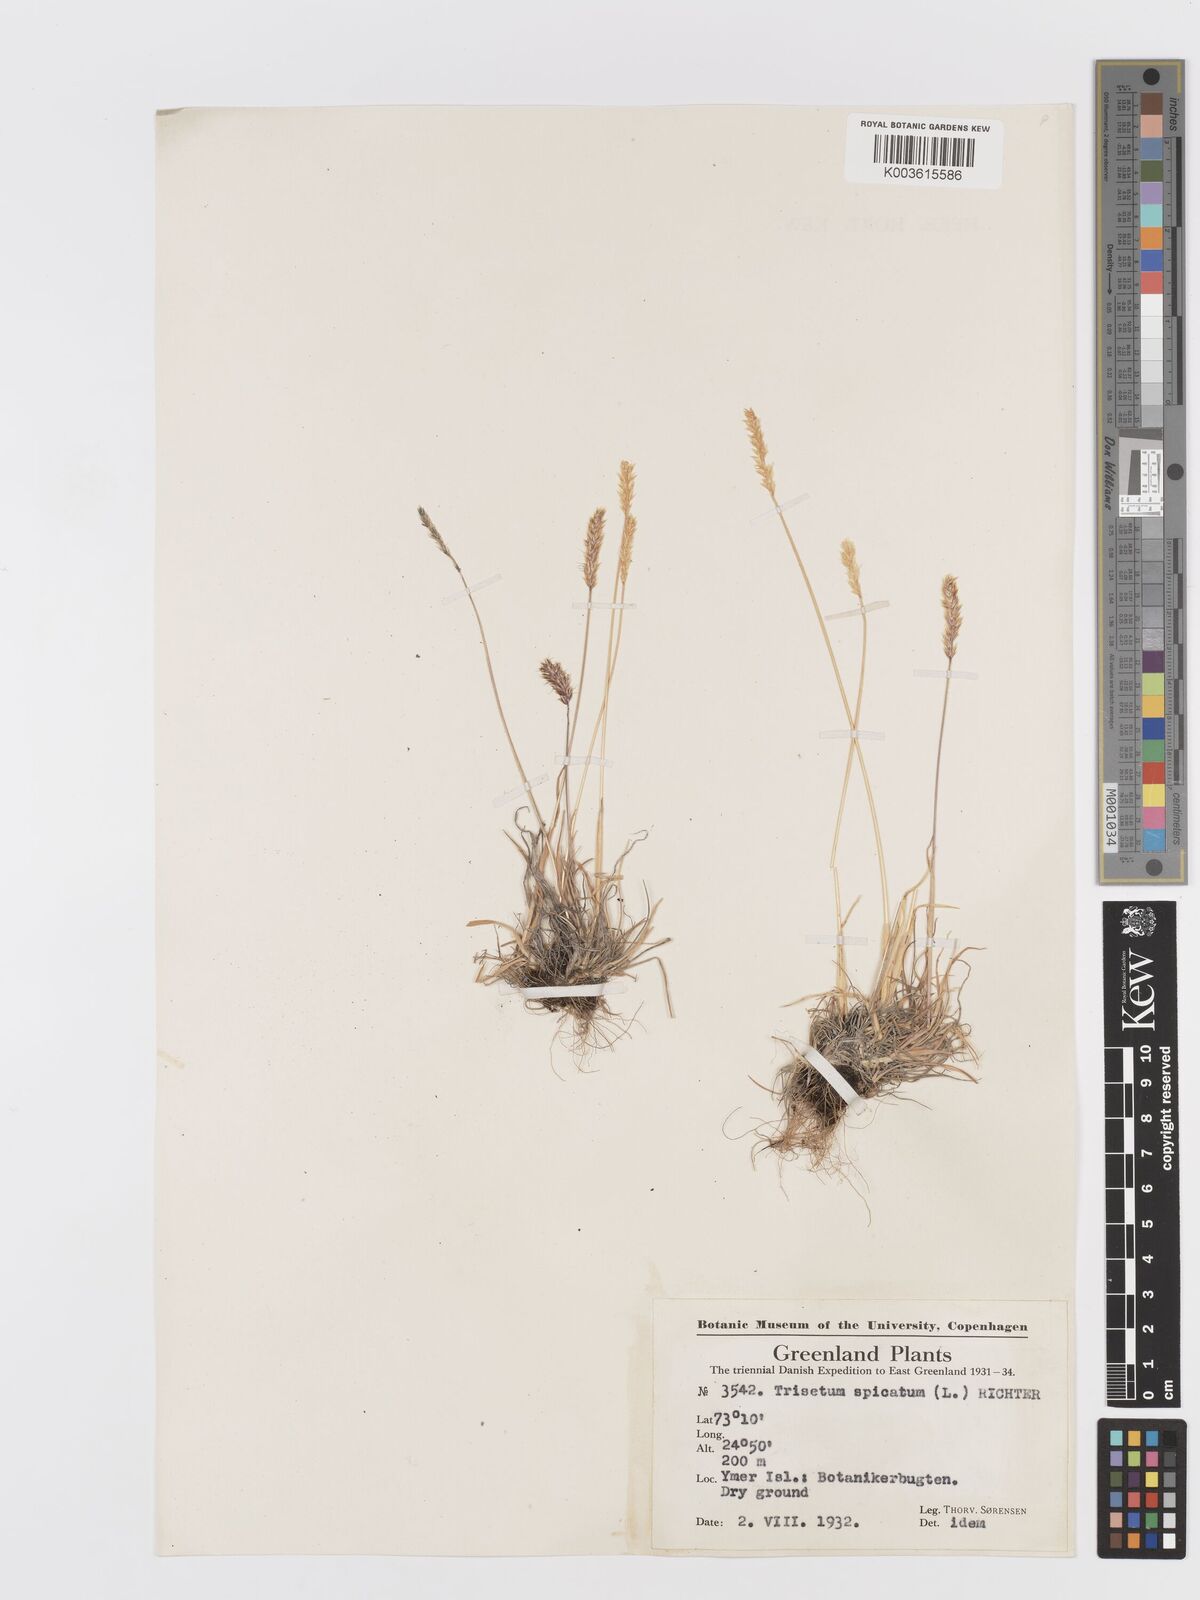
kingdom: Plantae
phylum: Tracheophyta
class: Liliopsida
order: Poales
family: Poaceae
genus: Koeleria
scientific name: Koeleria spicata
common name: Mountain trisetum
